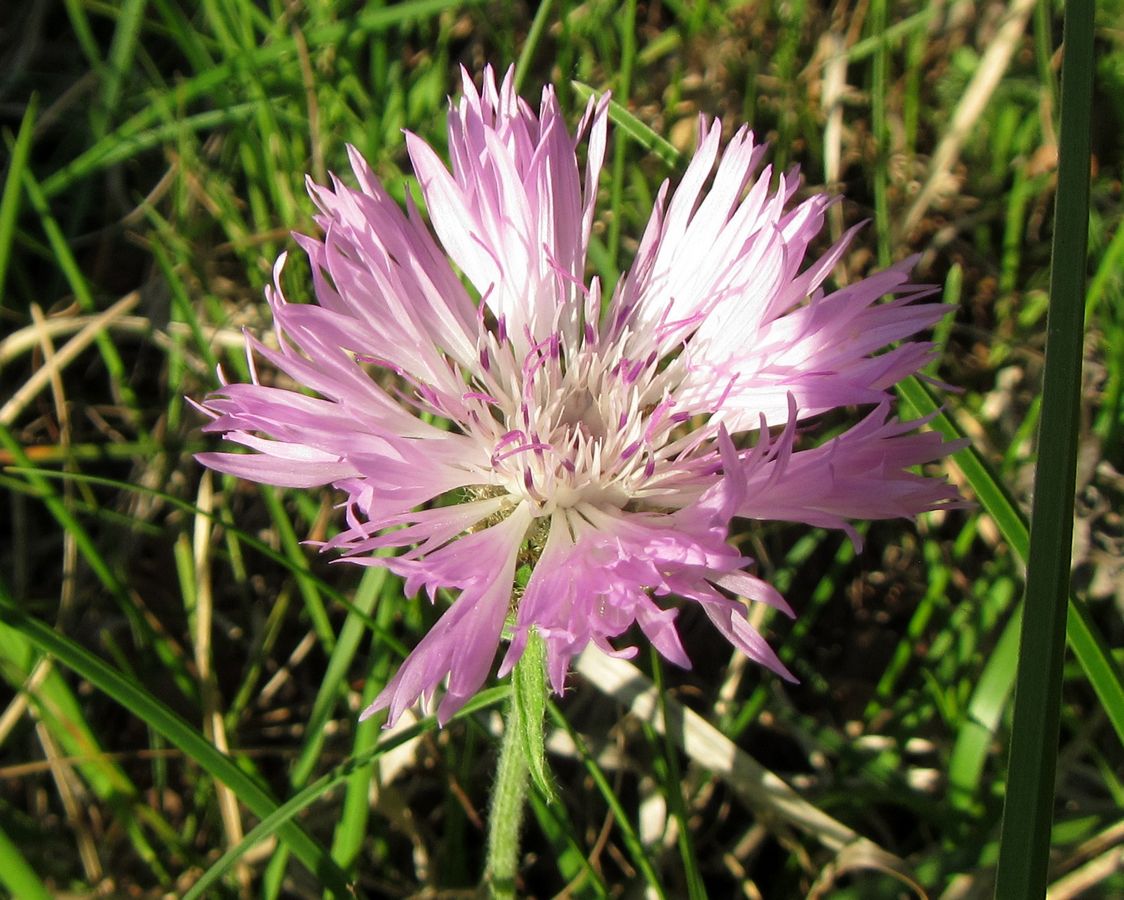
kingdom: Plantae
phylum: Tracheophyta
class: Magnoliopsida
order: Asterales
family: Asteraceae
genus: Psephellus
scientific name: Psephellus declinatus
